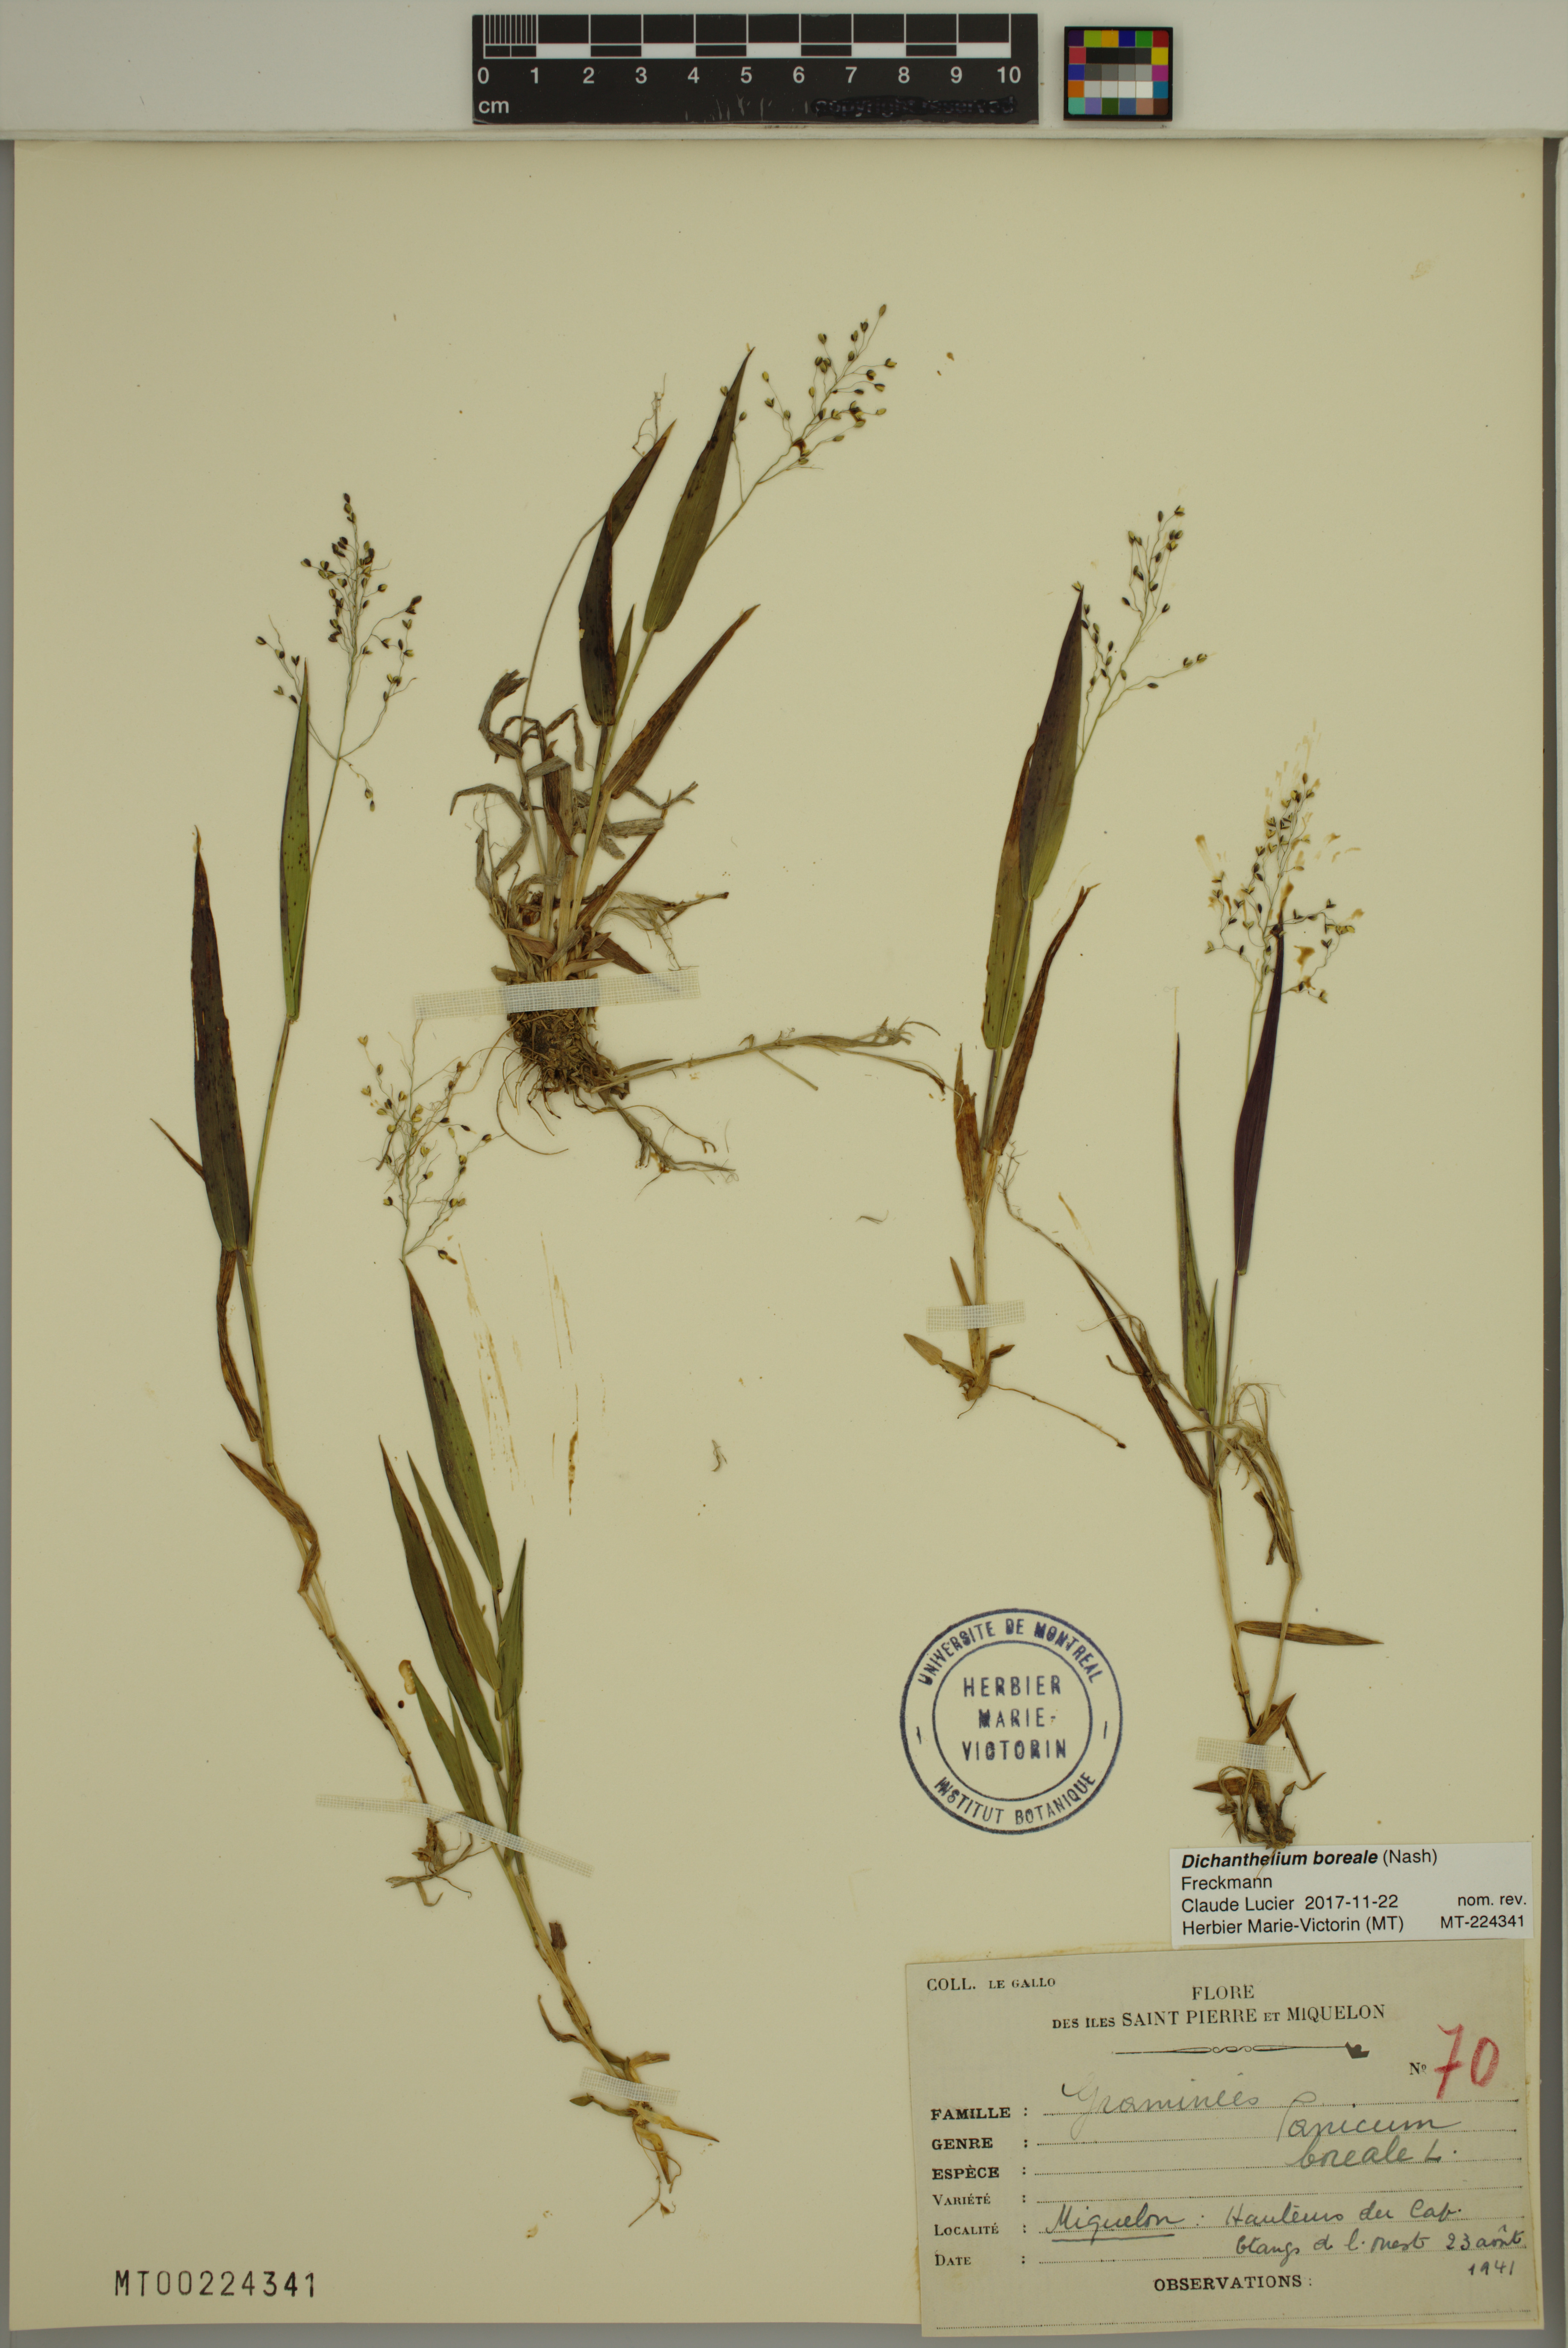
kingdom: Plantae
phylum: Tracheophyta
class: Liliopsida
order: Poales
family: Poaceae
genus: Dichanthelium
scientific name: Dichanthelium boreale
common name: Northern panicgrass
